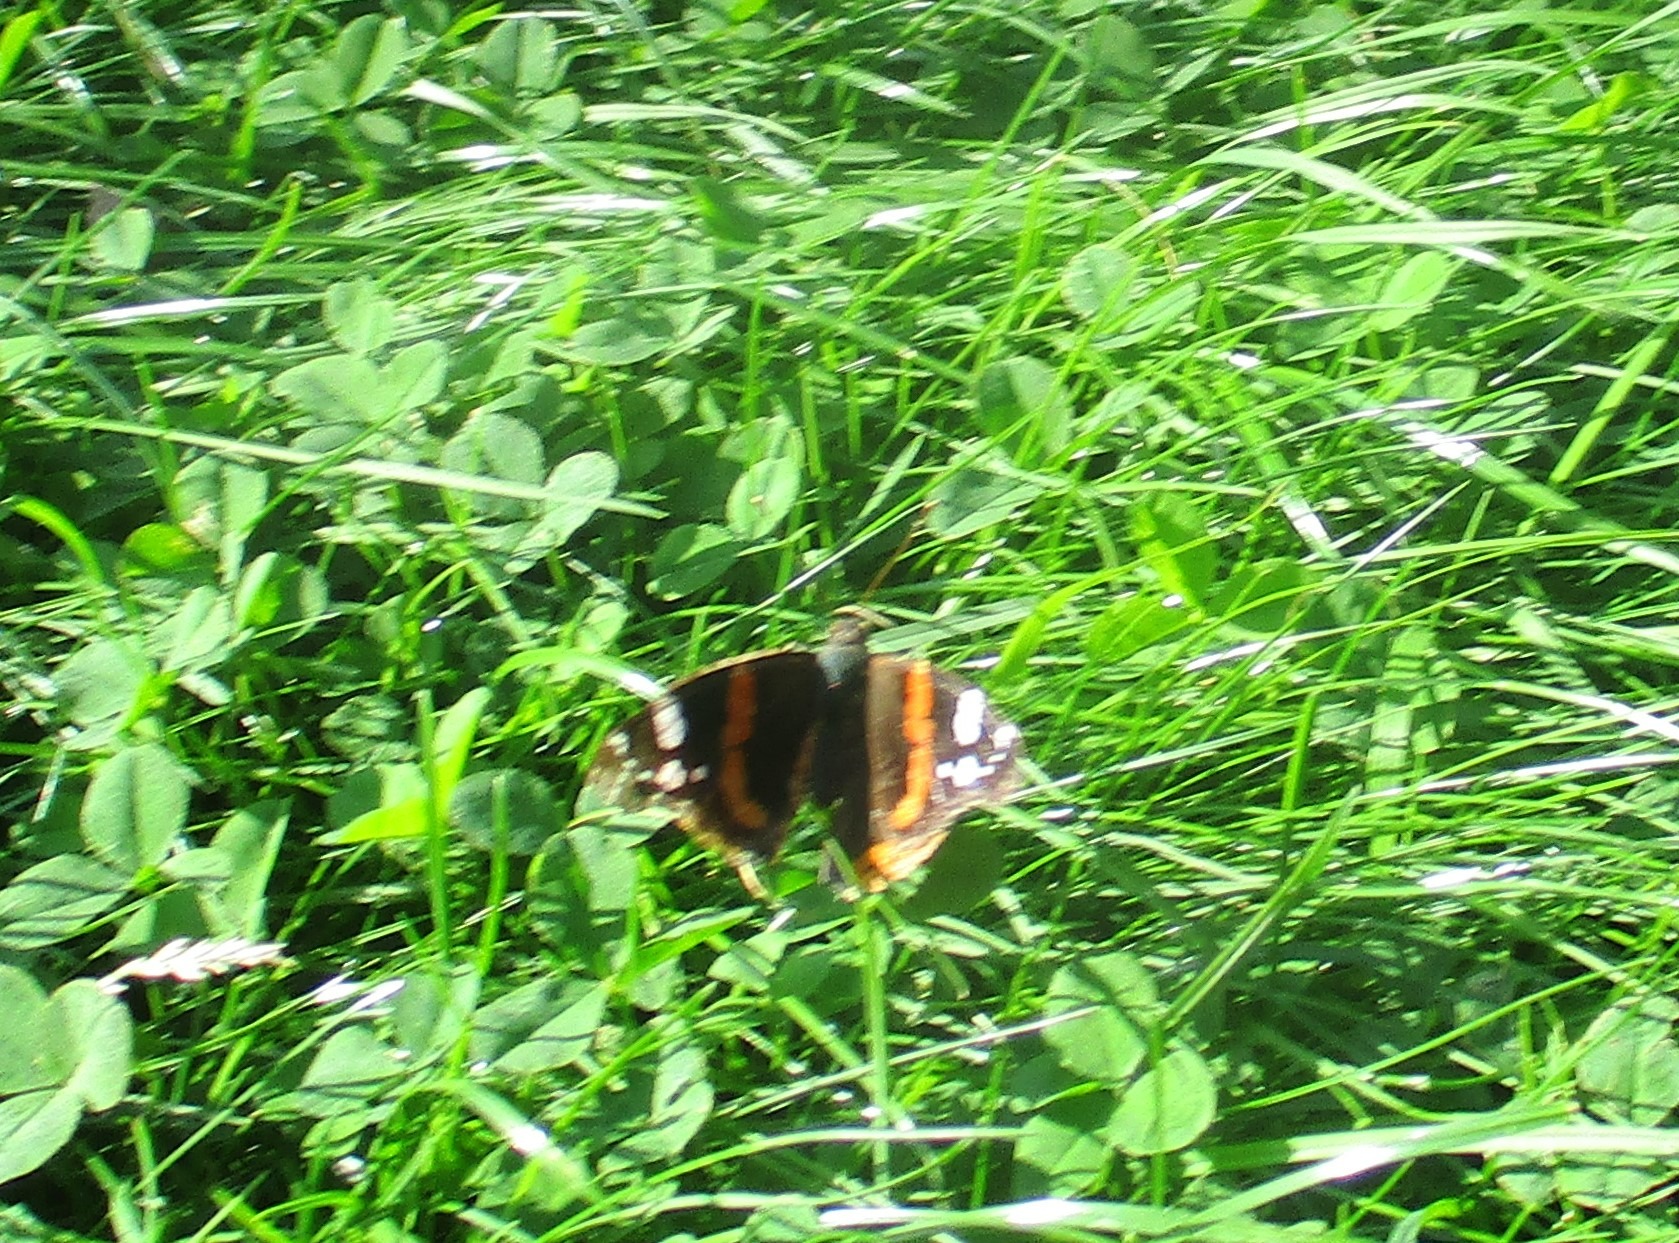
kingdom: Animalia
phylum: Arthropoda
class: Insecta
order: Lepidoptera
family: Nymphalidae
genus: Vanessa
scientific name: Vanessa atalanta
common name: Admiral
